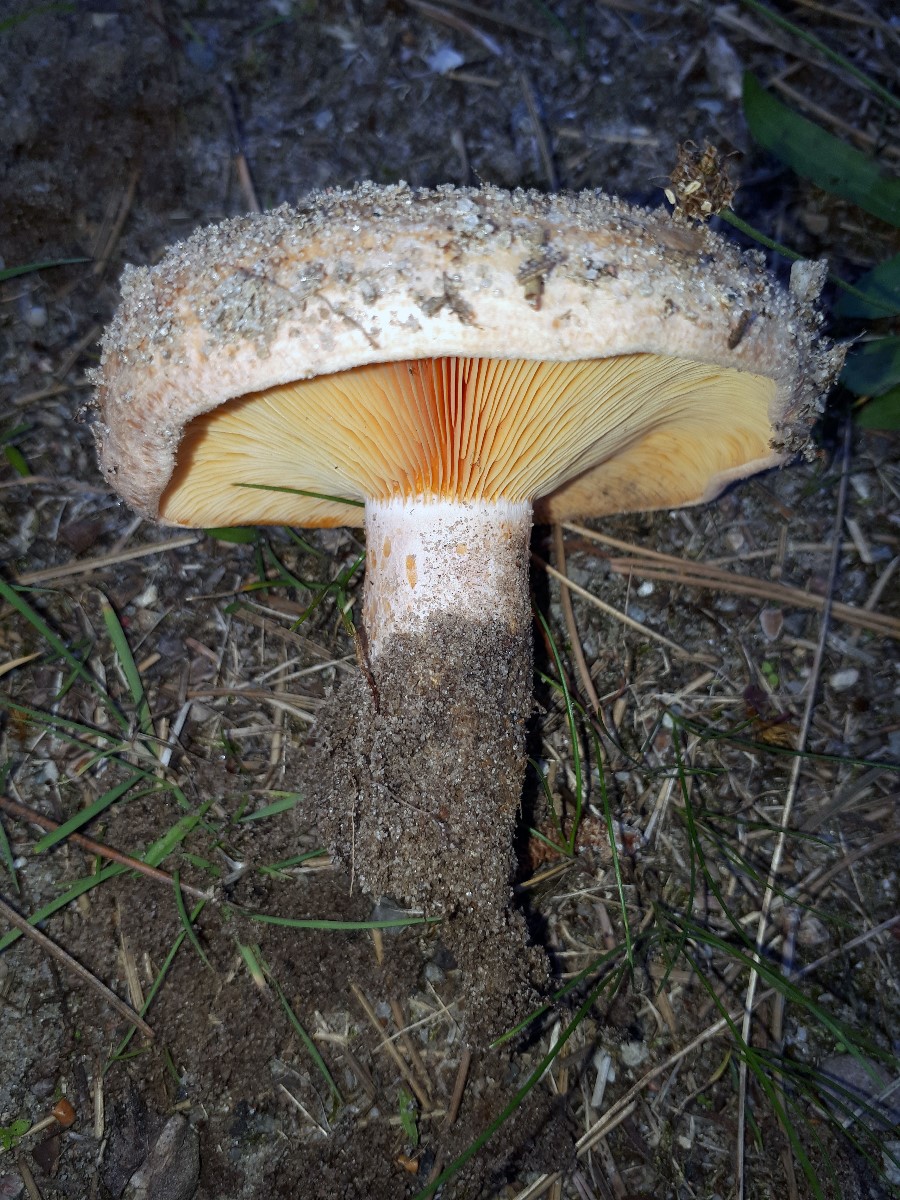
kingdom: Fungi
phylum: Basidiomycota
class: Agaricomycetes
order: Russulales
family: Russulaceae
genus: Lactarius
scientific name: Lactarius deliciosus
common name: velsmagende mælkehat
